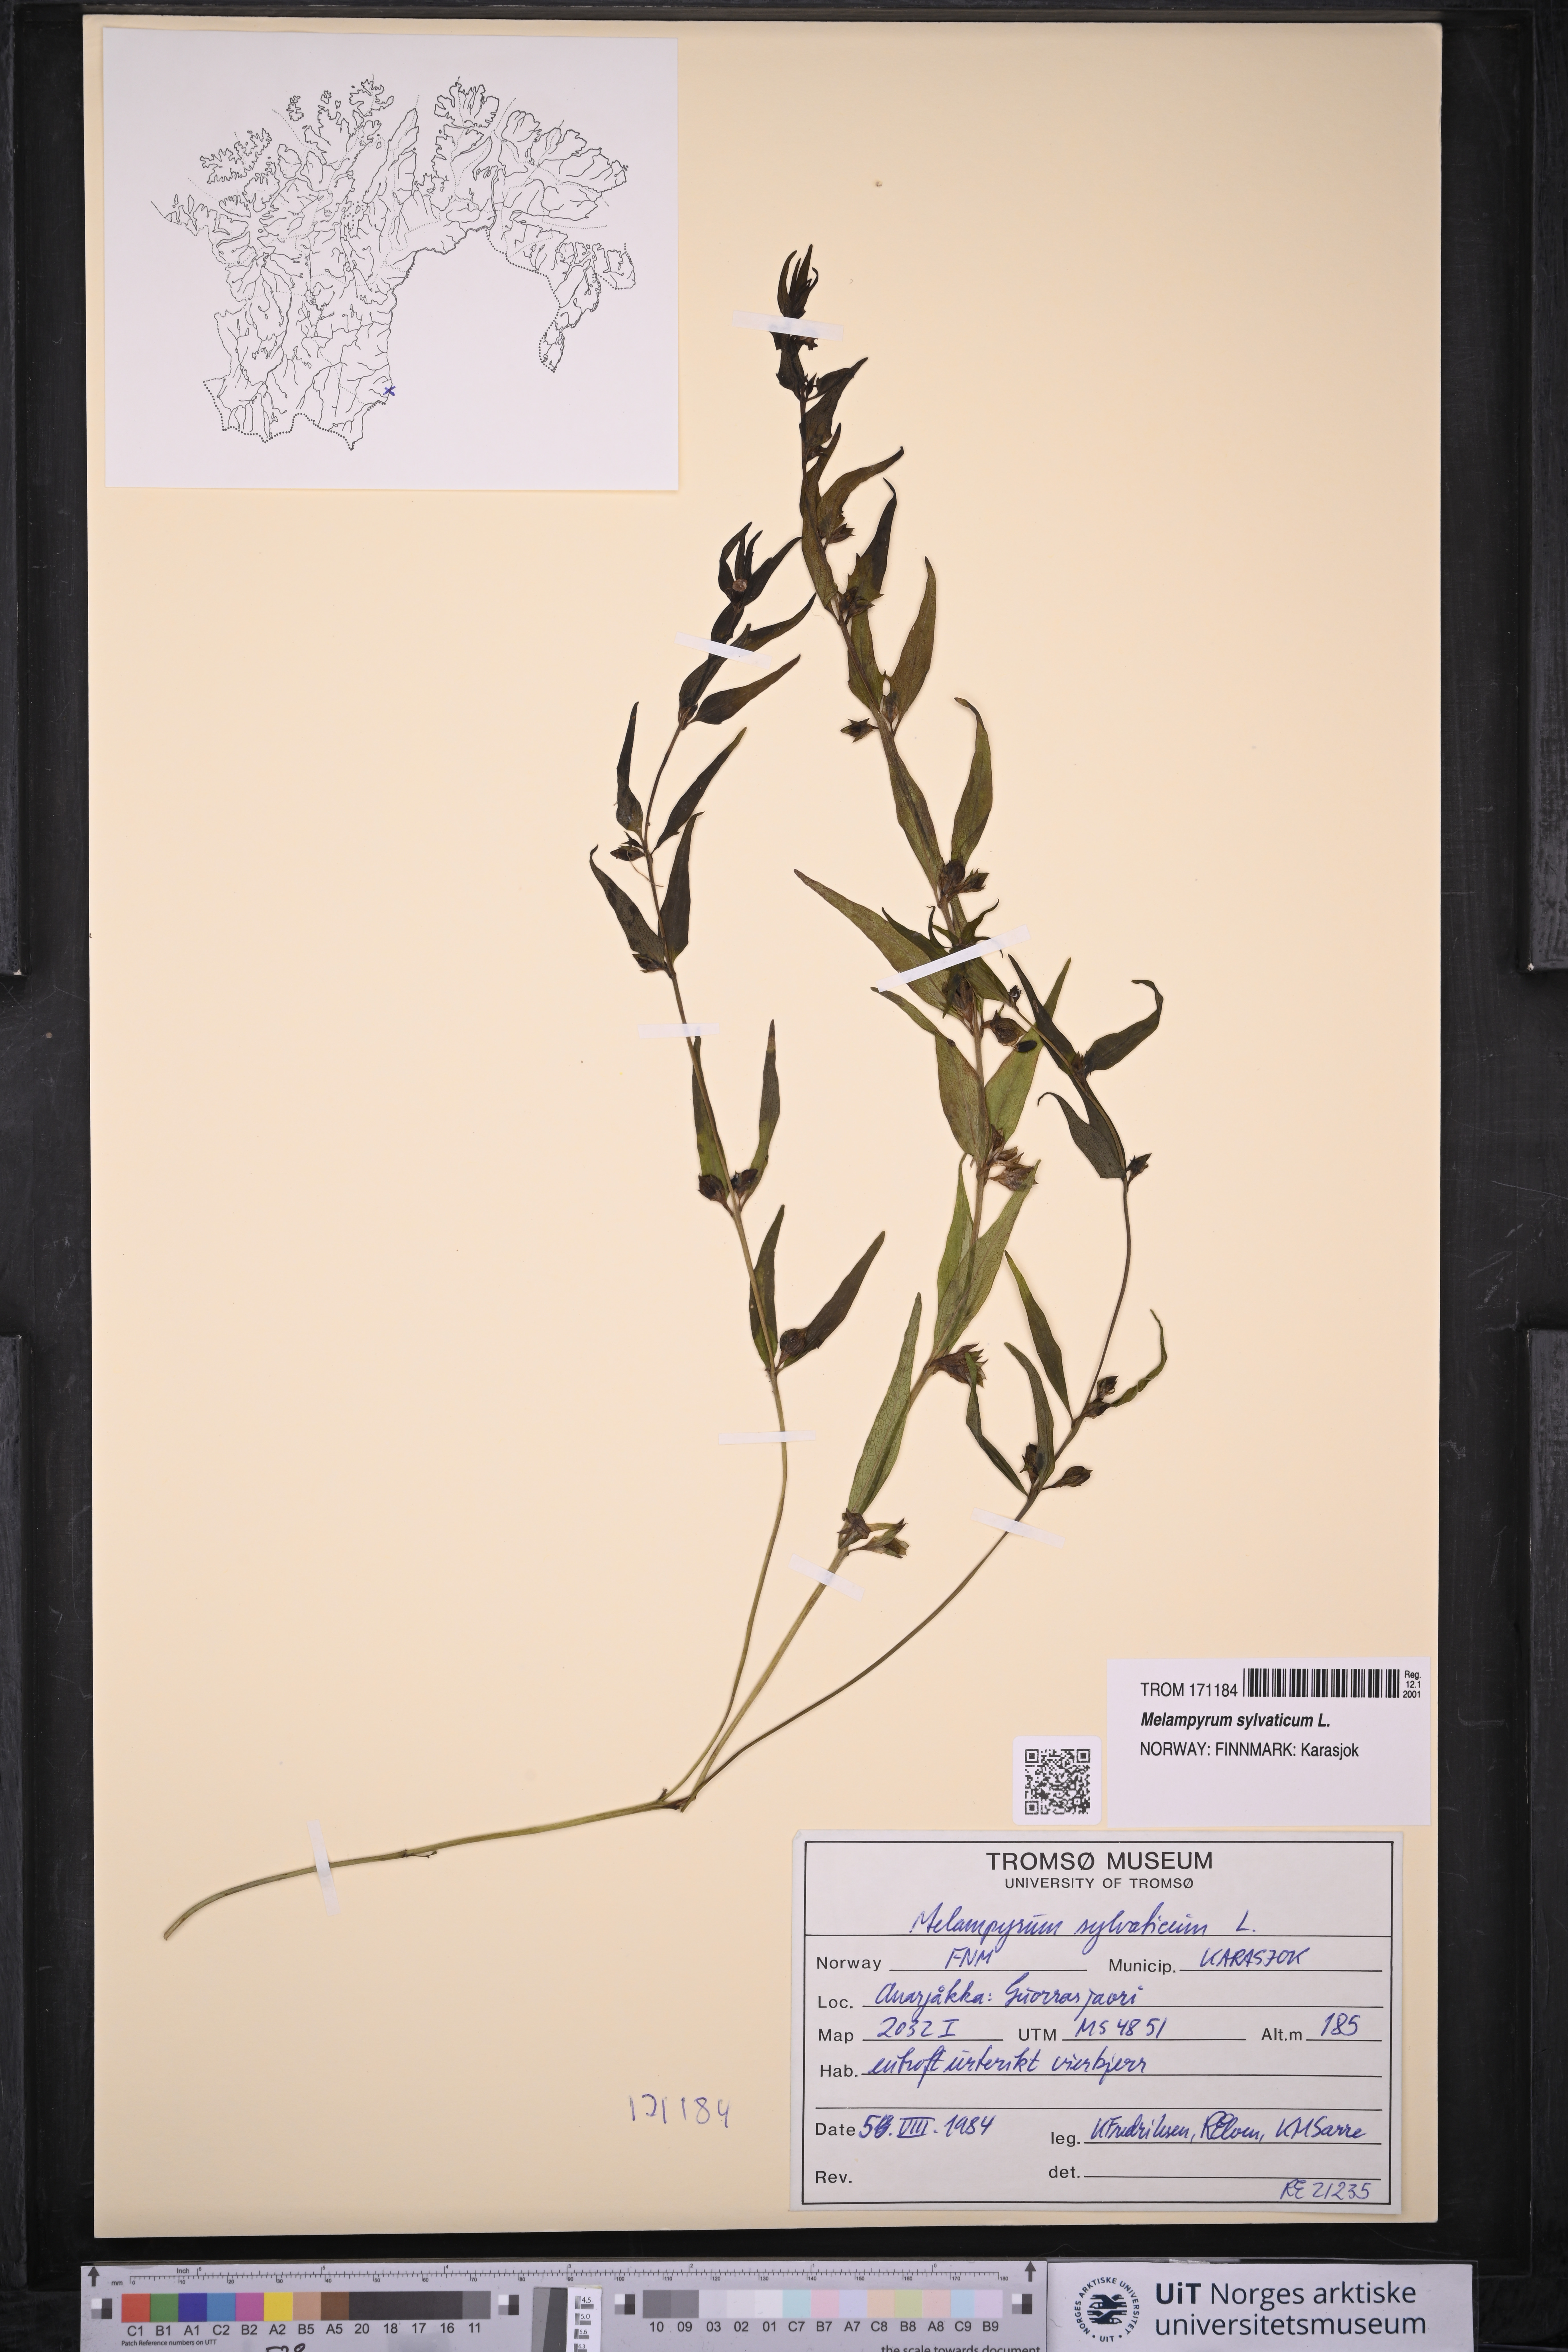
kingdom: Plantae
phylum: Tracheophyta
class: Magnoliopsida
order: Lamiales
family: Orobanchaceae
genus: Melampyrum
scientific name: Melampyrum sylvaticum
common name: Small cow-wheat
